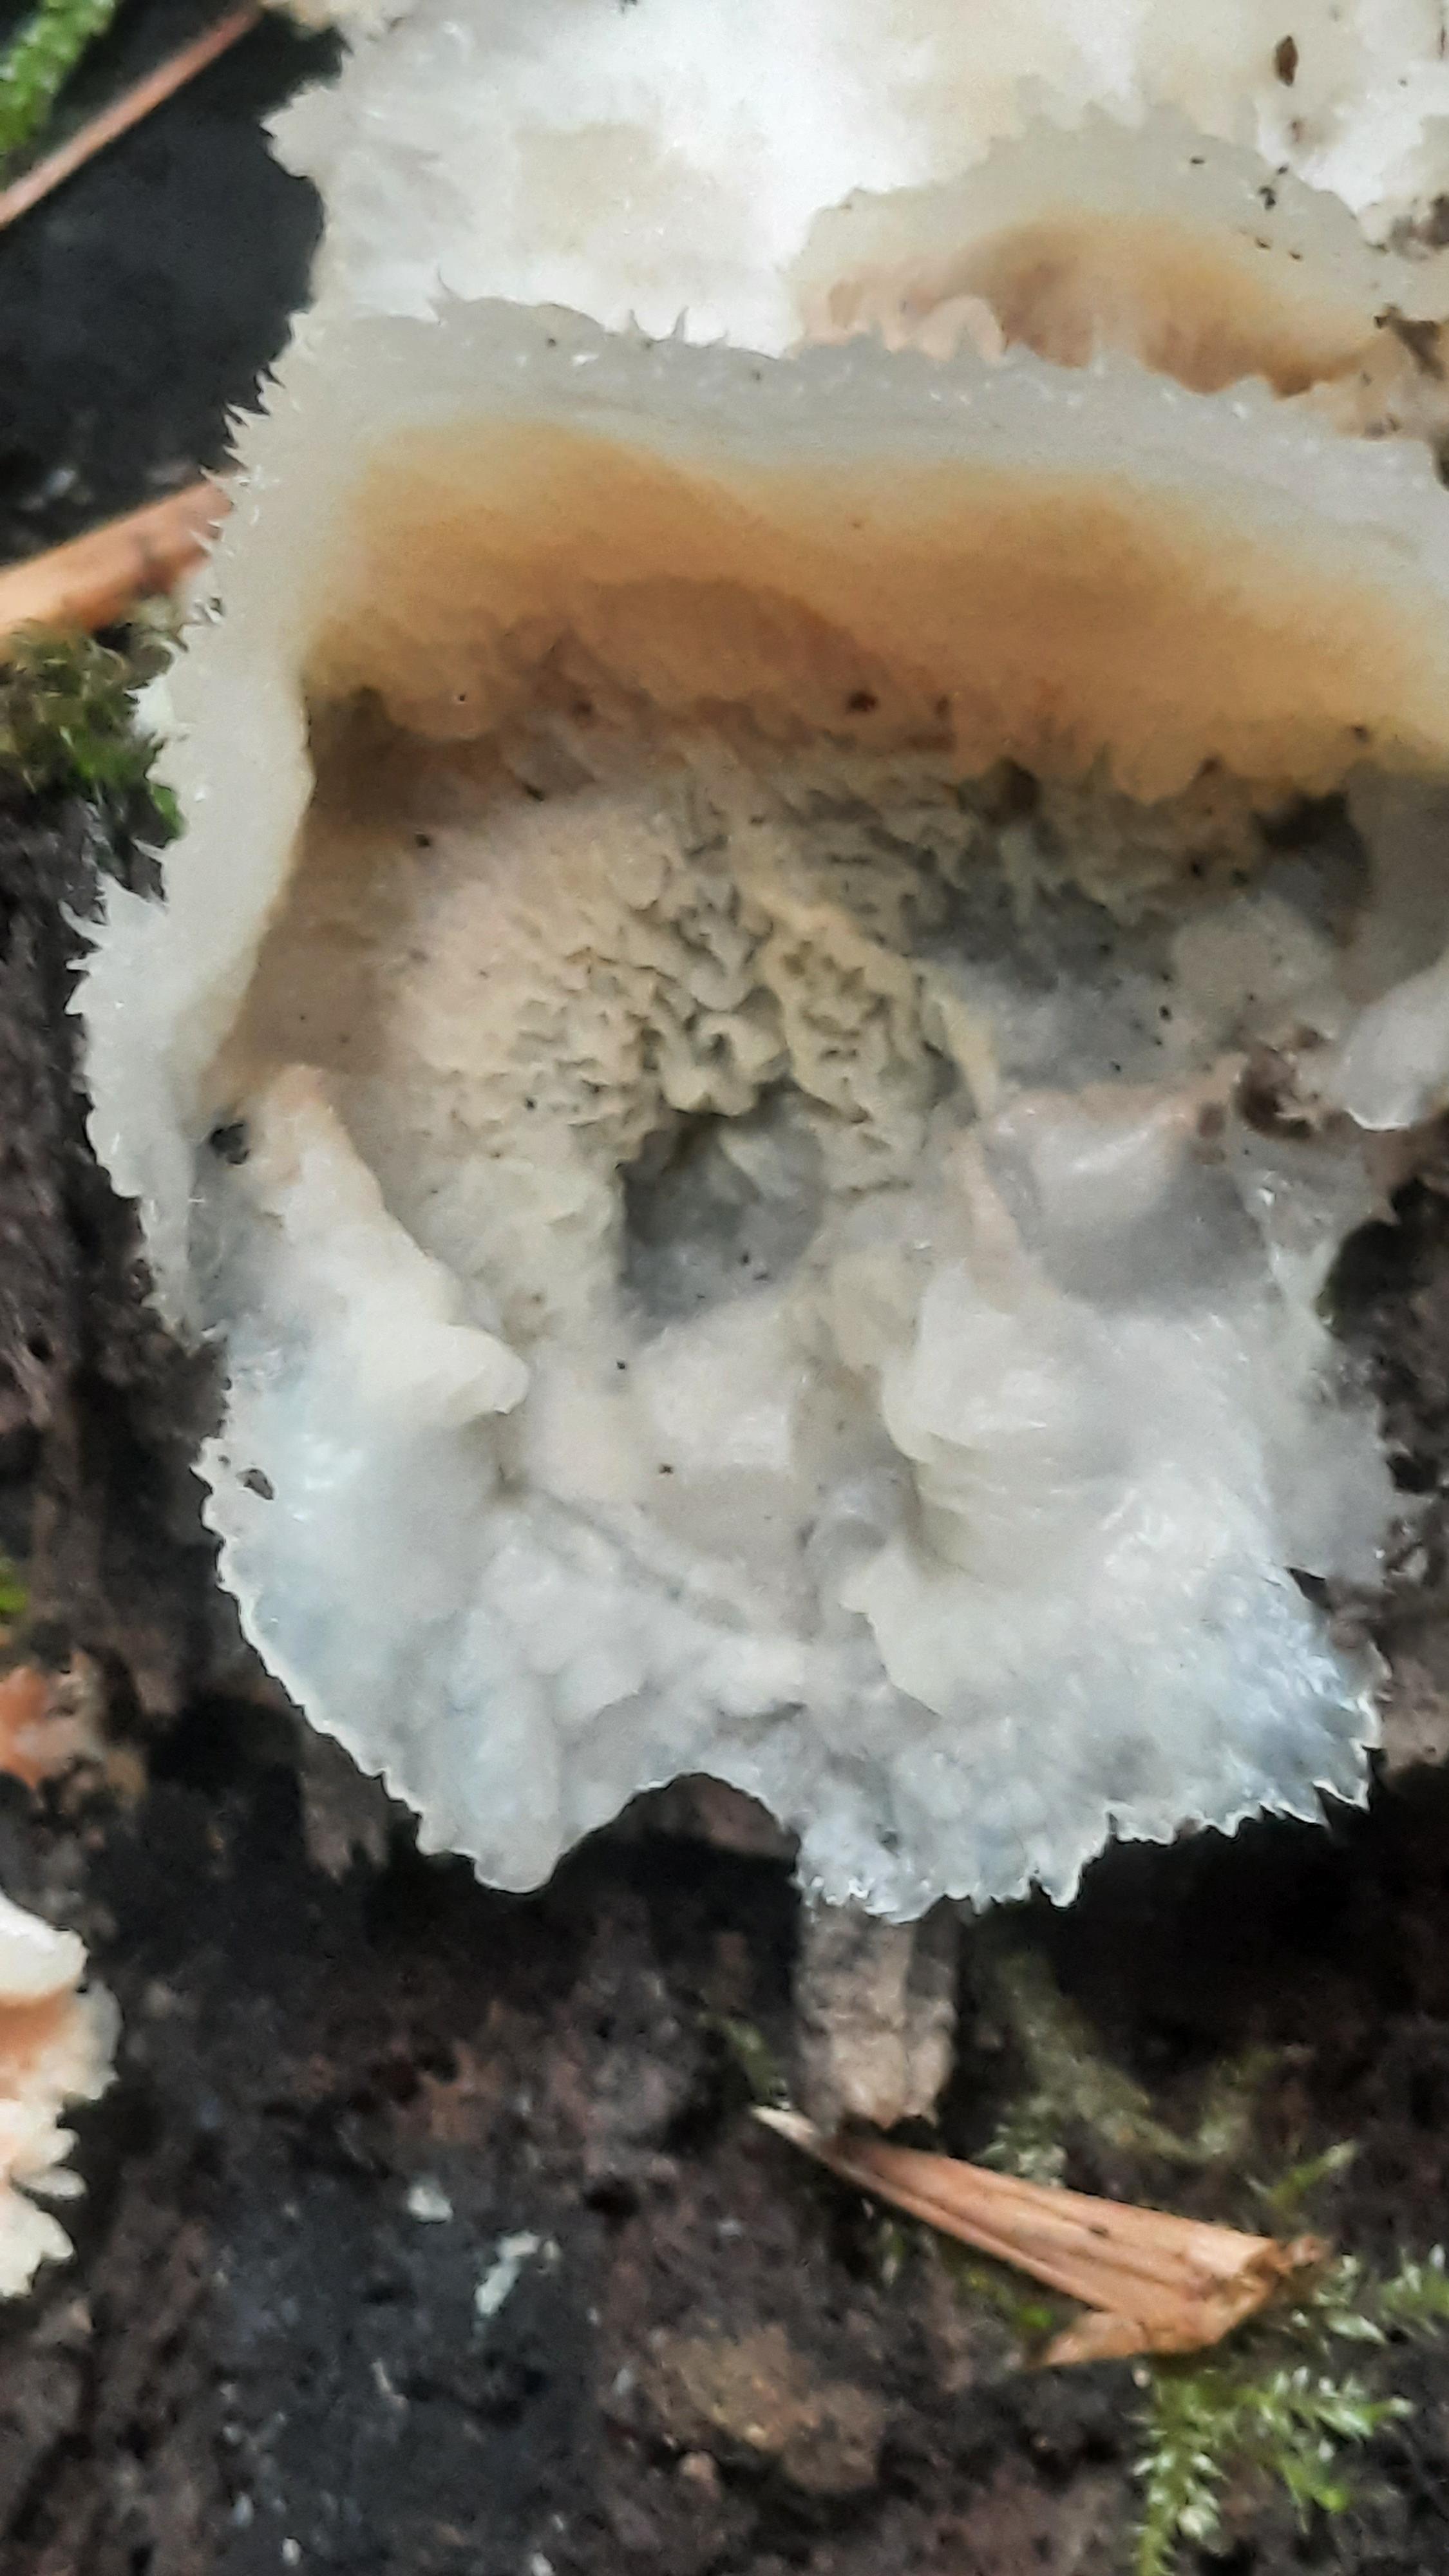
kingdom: Fungi
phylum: Basidiomycota
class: Agaricomycetes
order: Polyporales
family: Meruliaceae
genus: Phlebia
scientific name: Phlebia tremellosa
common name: bævrende åresvamp
